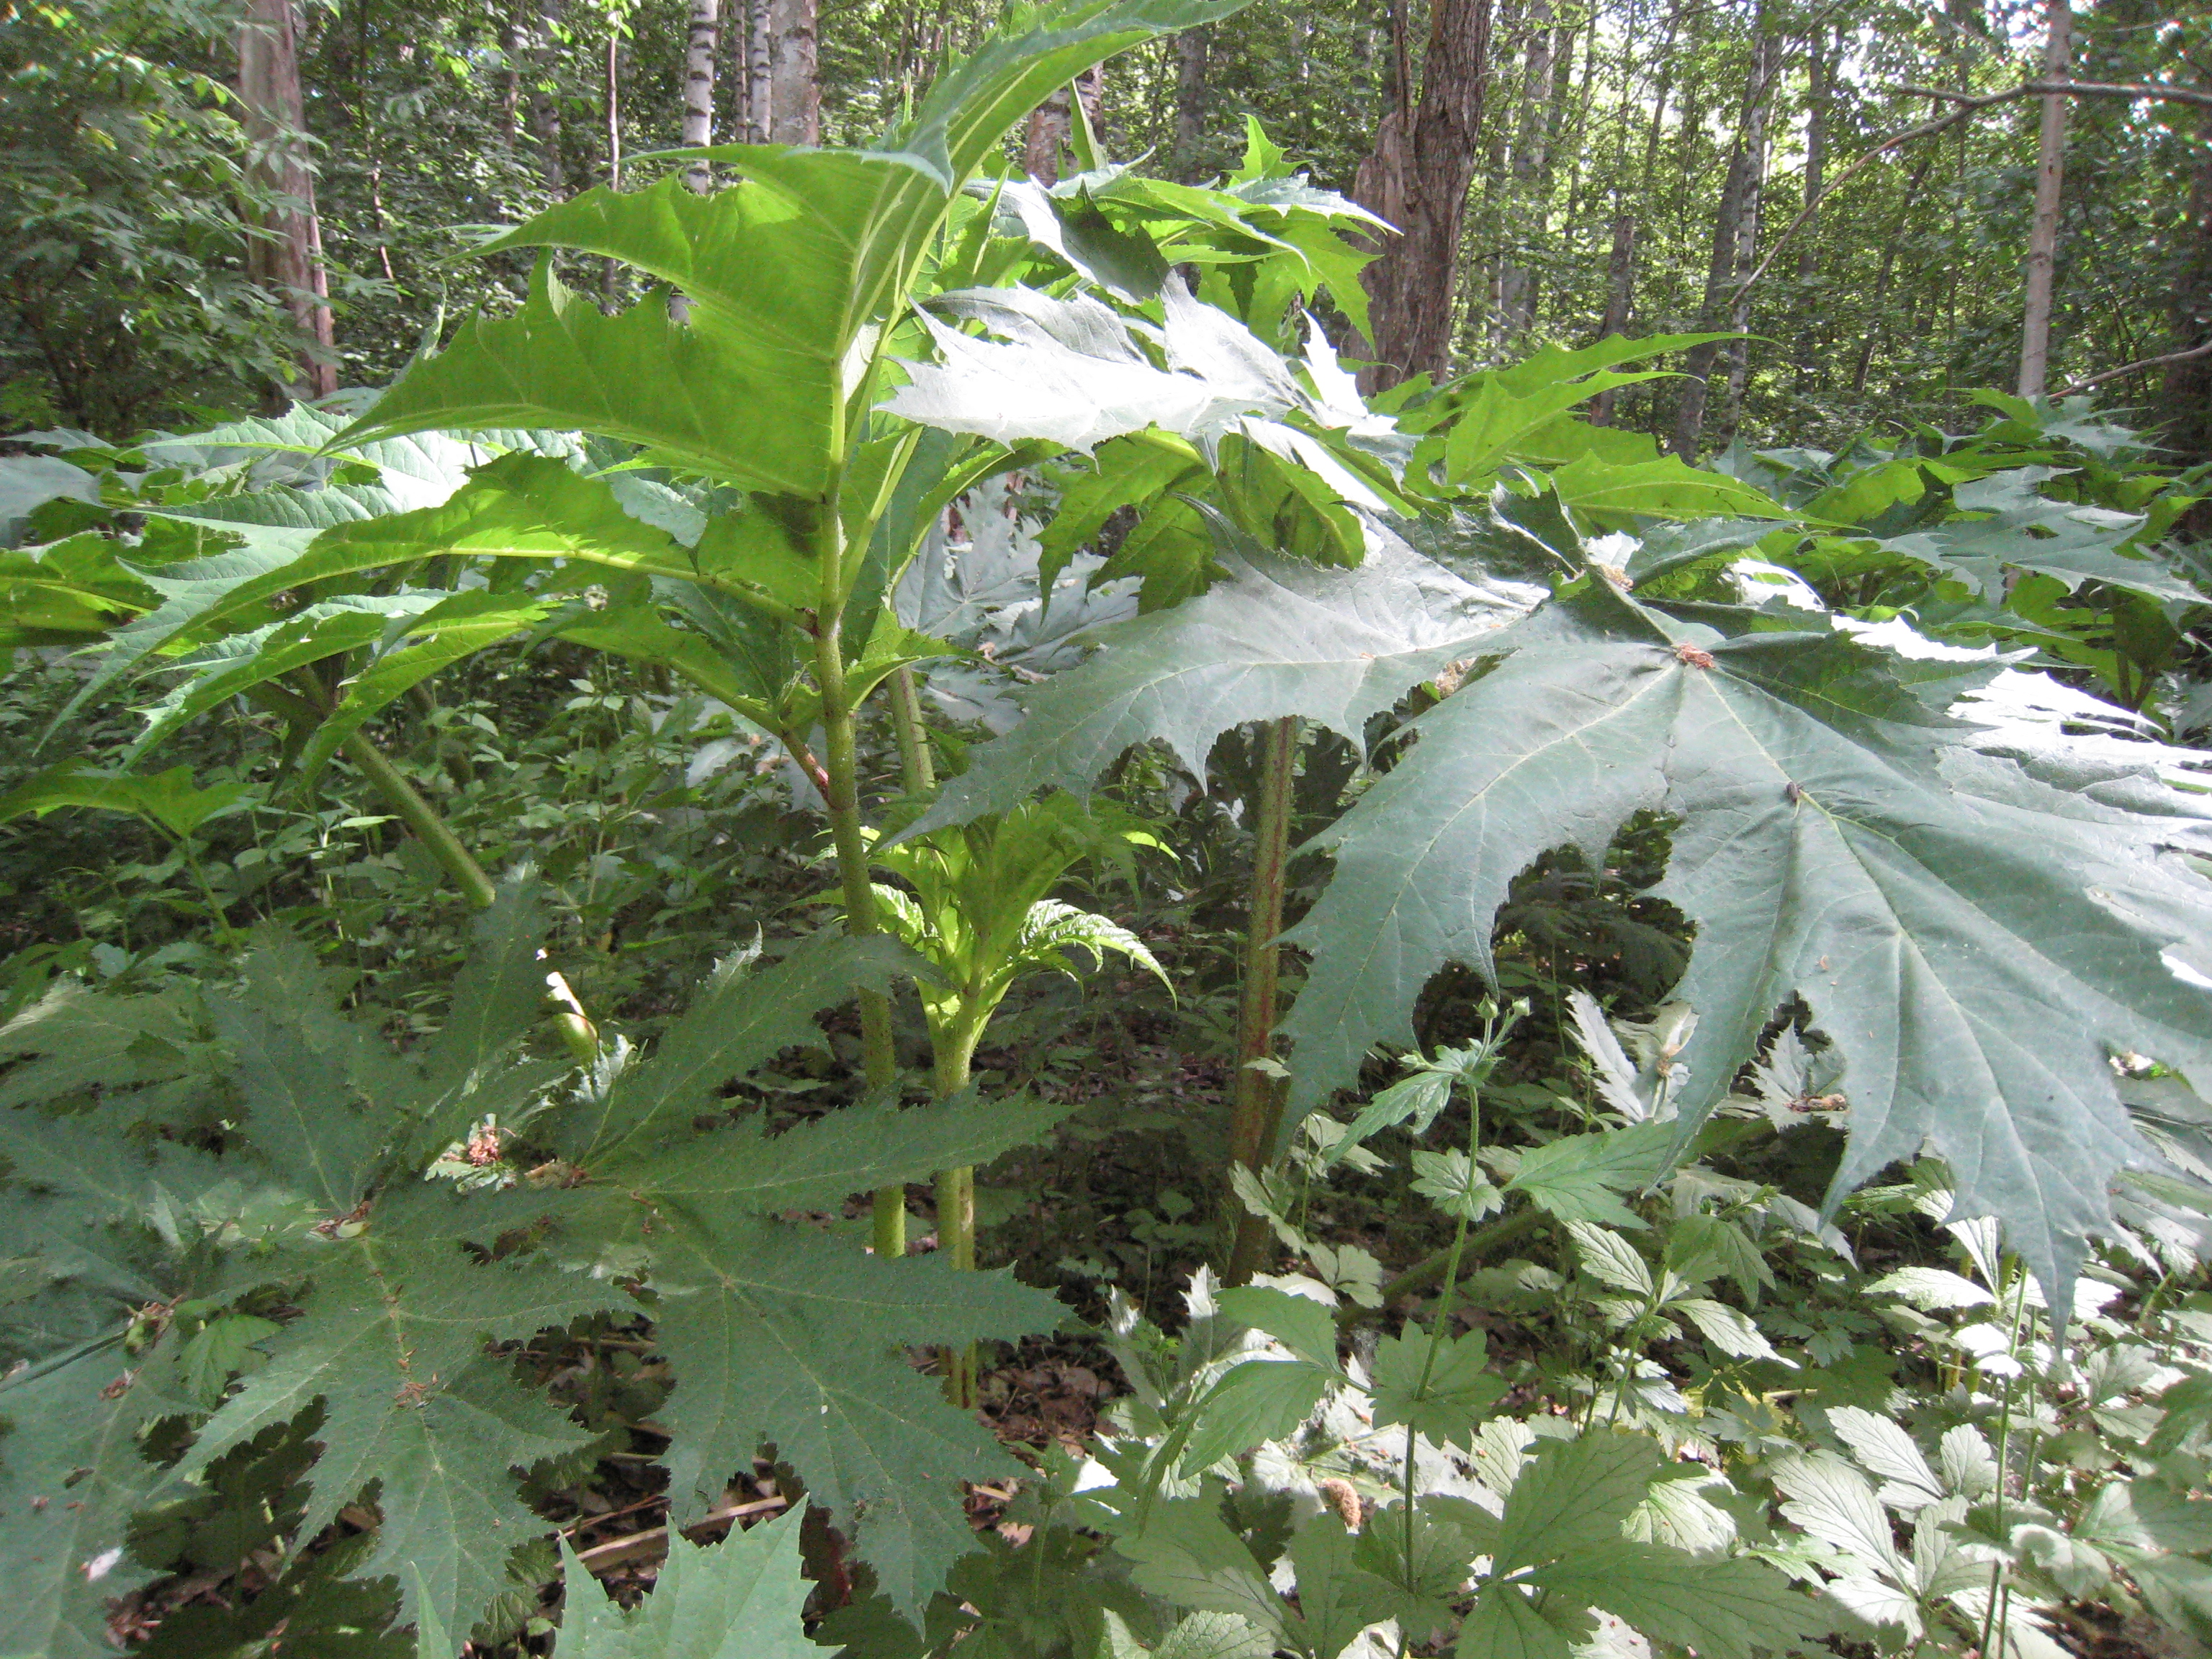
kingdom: Plantae
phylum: Tracheophyta
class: Magnoliopsida
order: Apiales
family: Apiaceae
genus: Heracleum
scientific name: Heracleum
